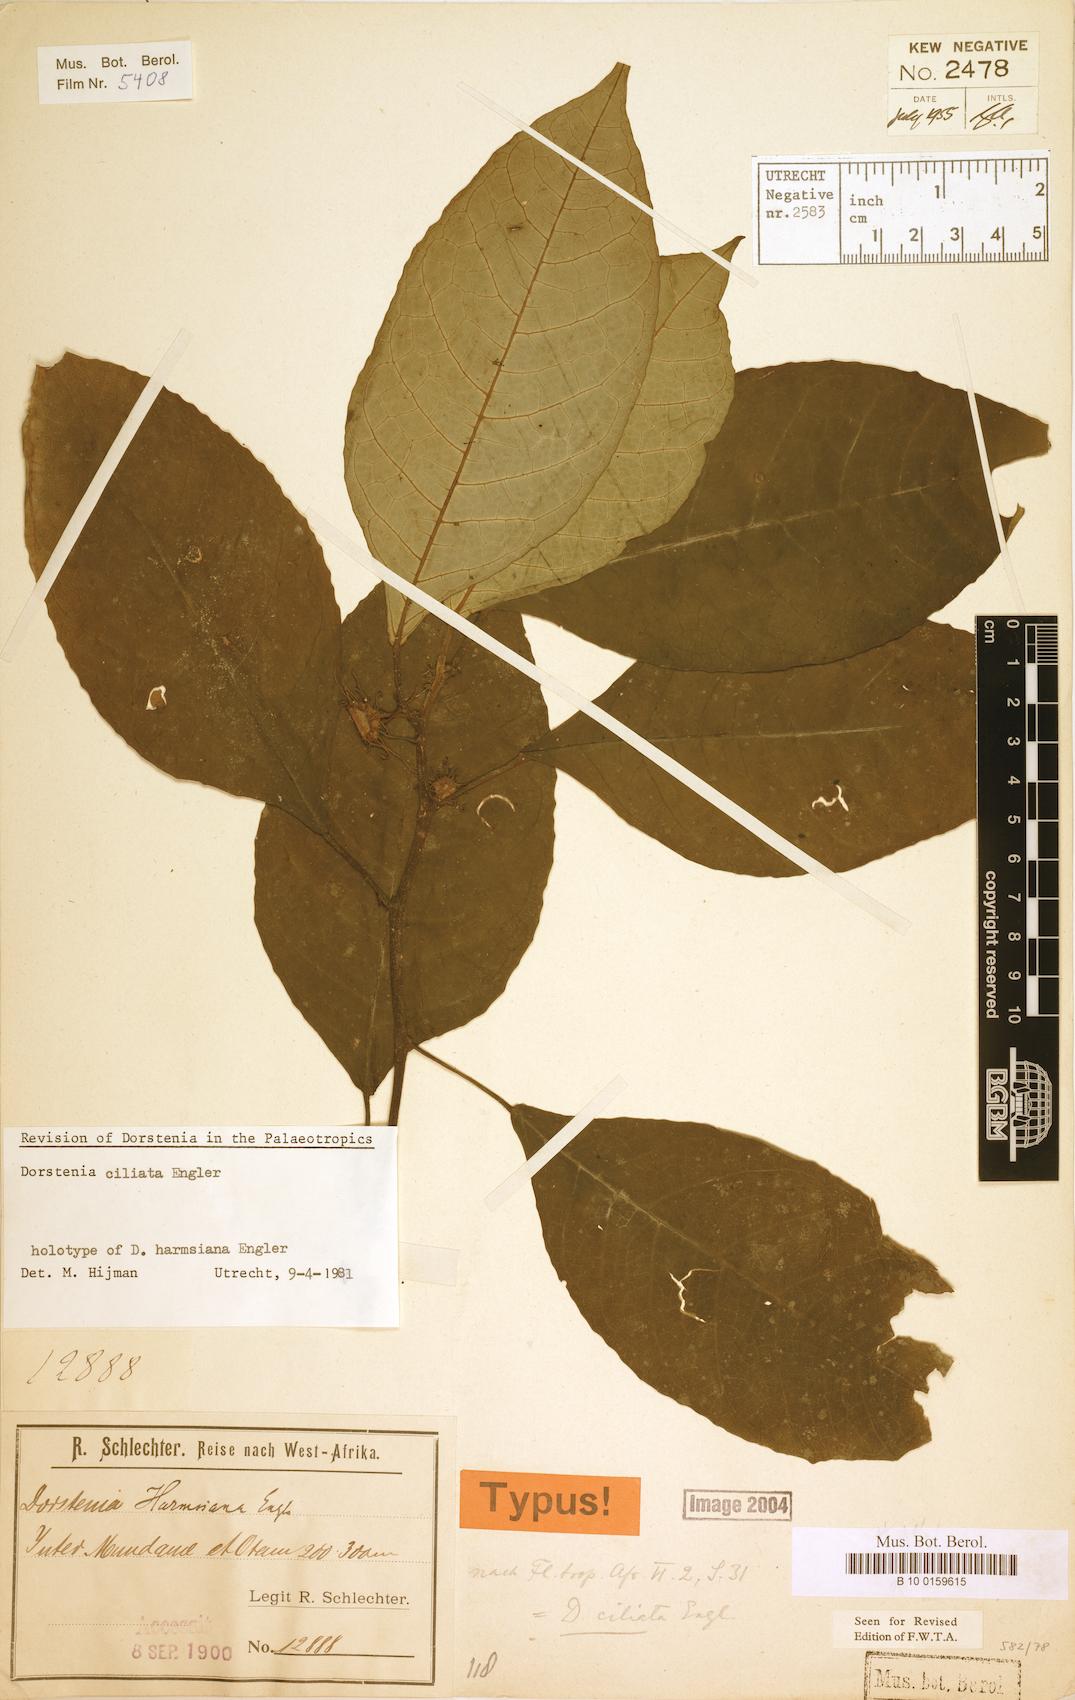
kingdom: Plantae
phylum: Tracheophyta
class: Magnoliopsida
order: Rosales
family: Moraceae
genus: Dorstenia
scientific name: Dorstenia ciliata
